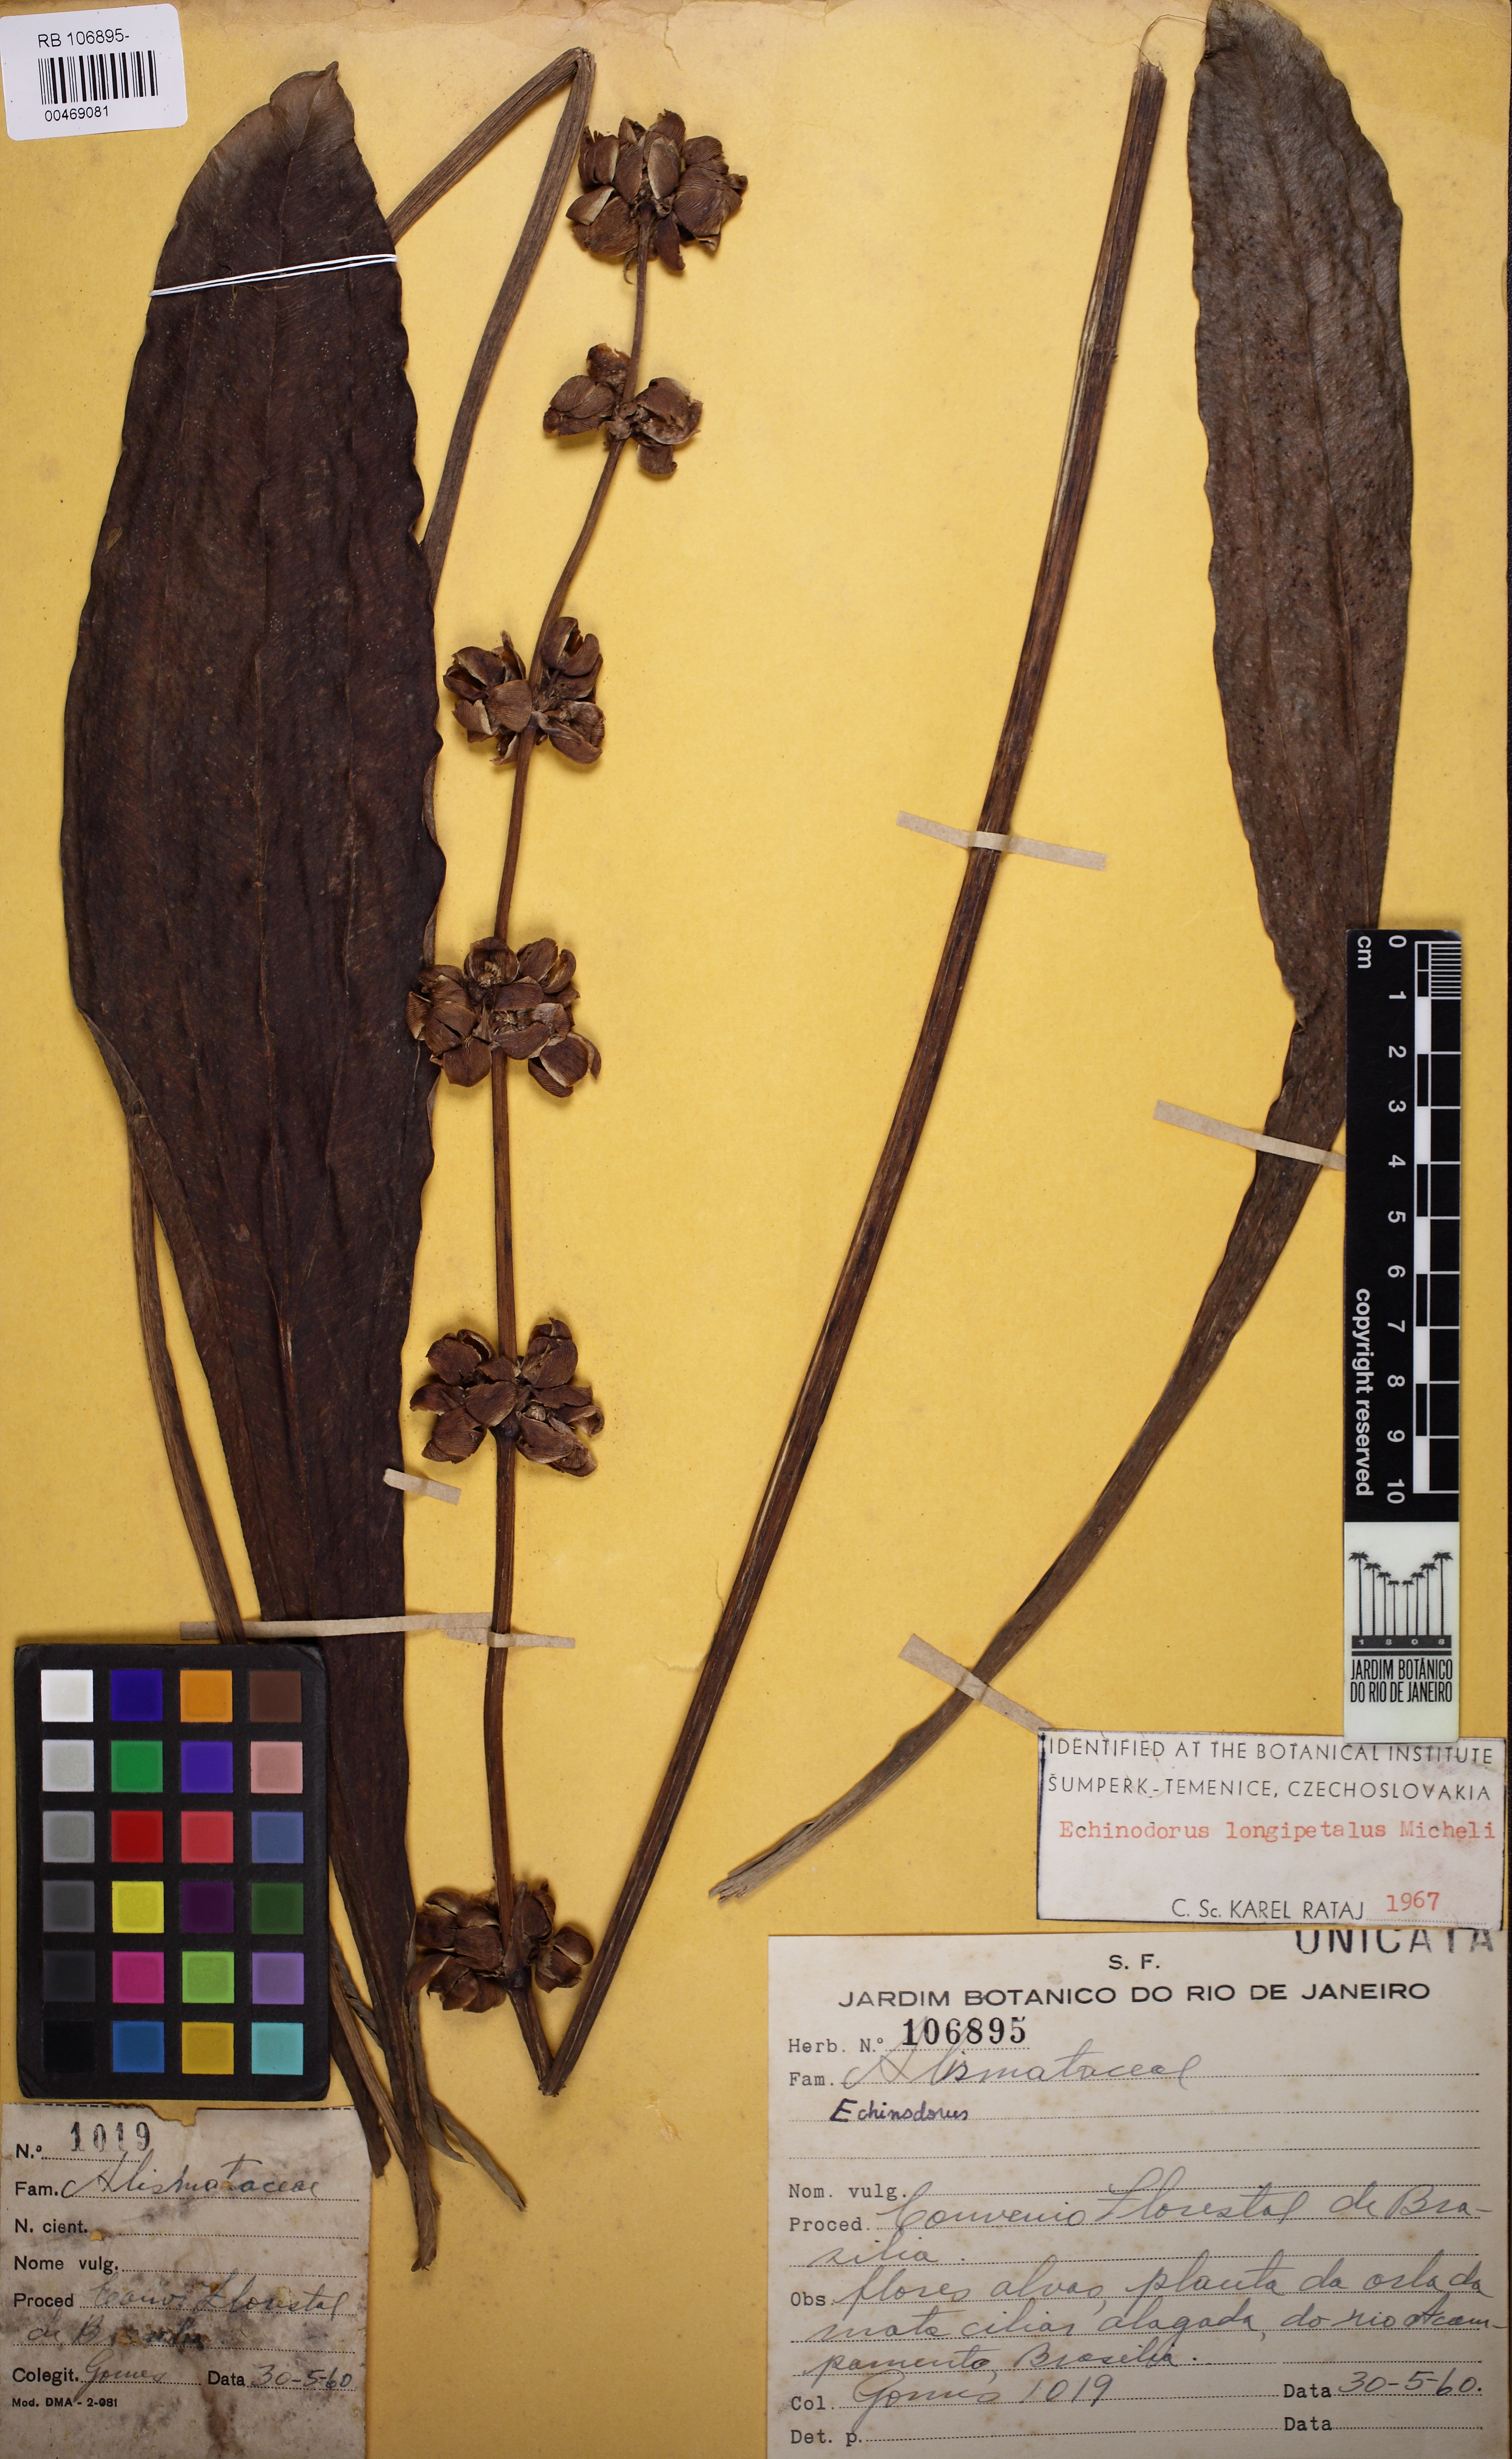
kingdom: Plantae
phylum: Tracheophyta
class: Liliopsida
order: Alismatales
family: Alismataceae
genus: Aquarius
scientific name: Aquarius longipetalus
